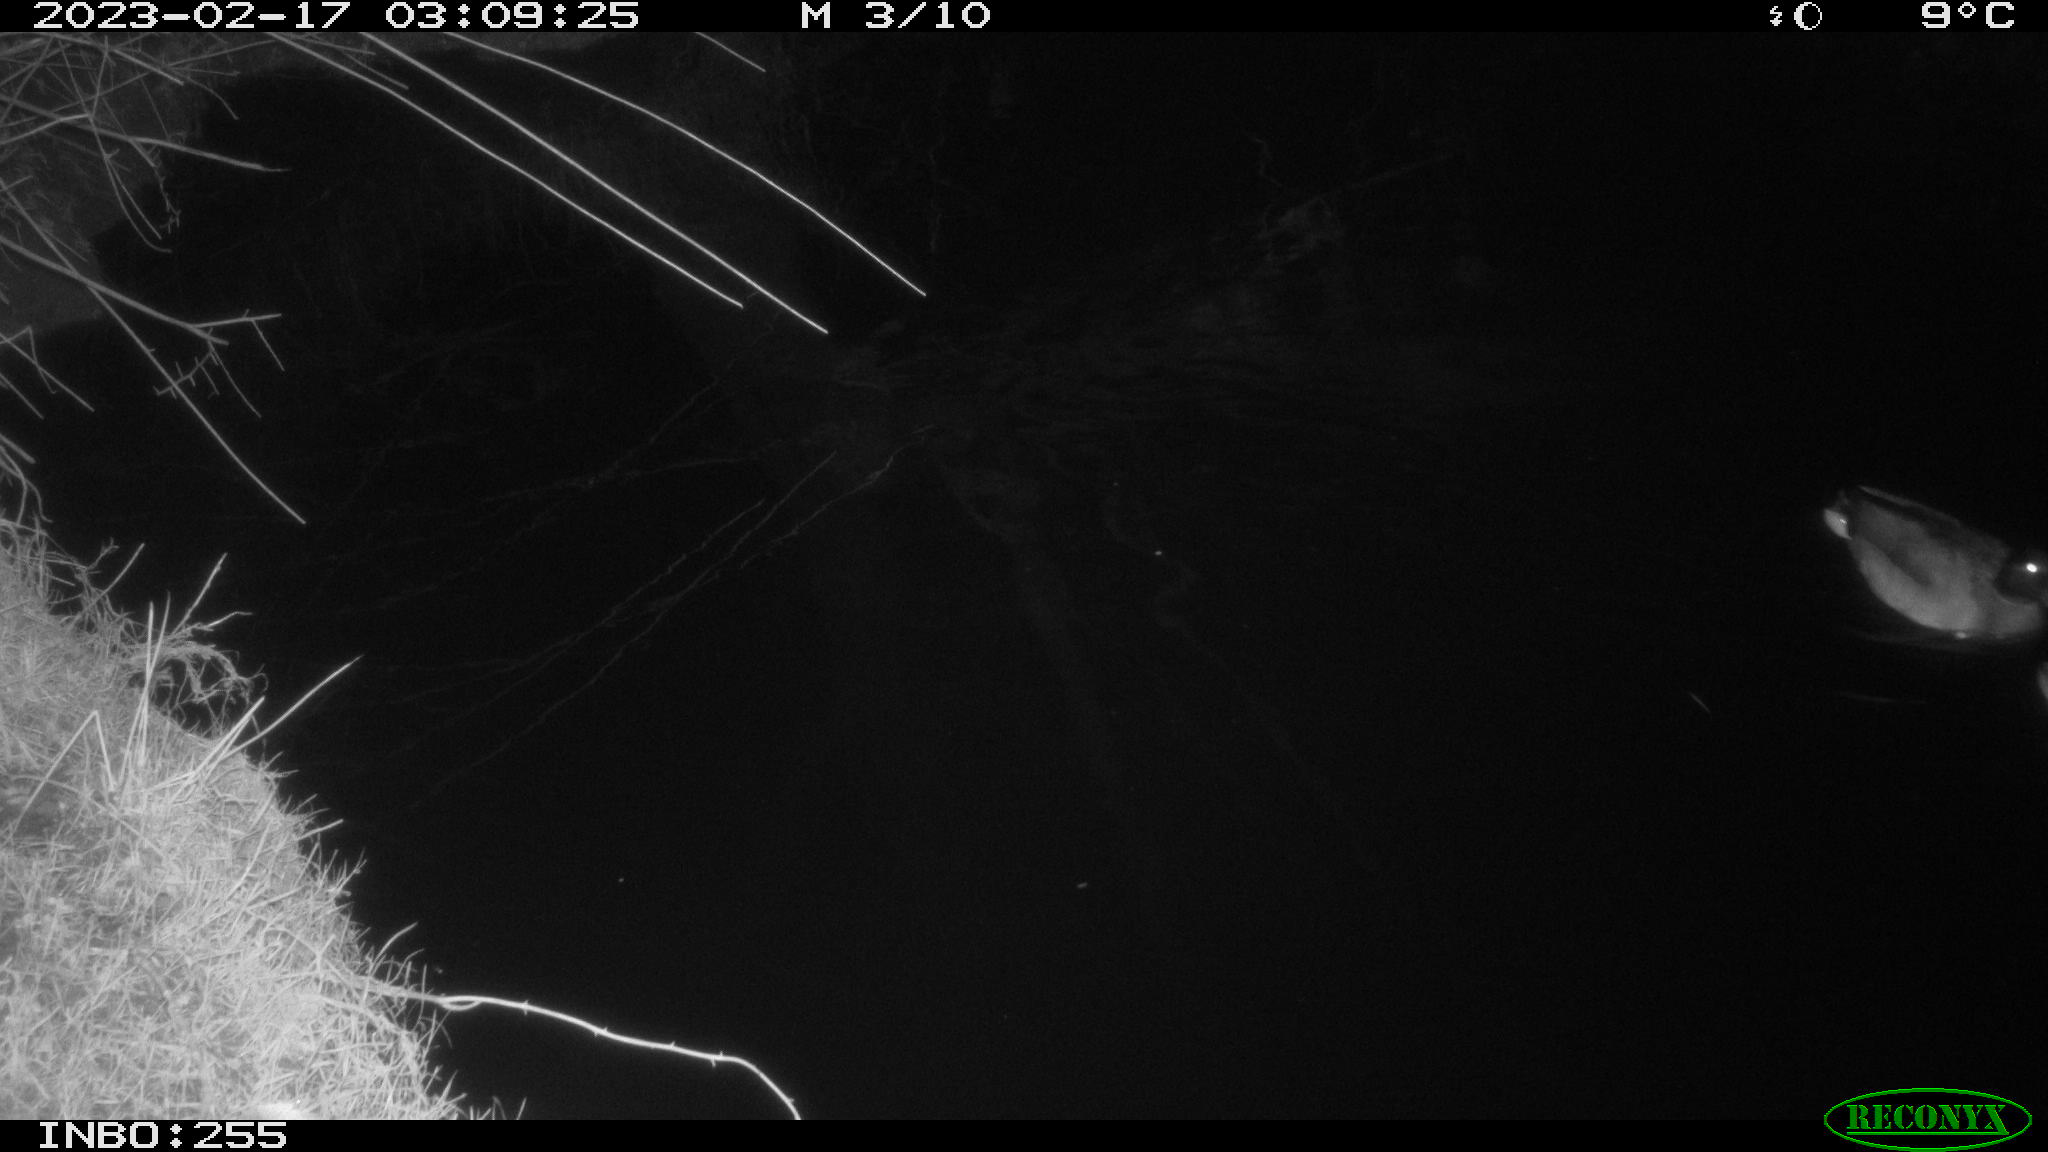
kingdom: Animalia
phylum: Chordata
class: Aves
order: Anseriformes
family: Anatidae
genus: Anas
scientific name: Anas
